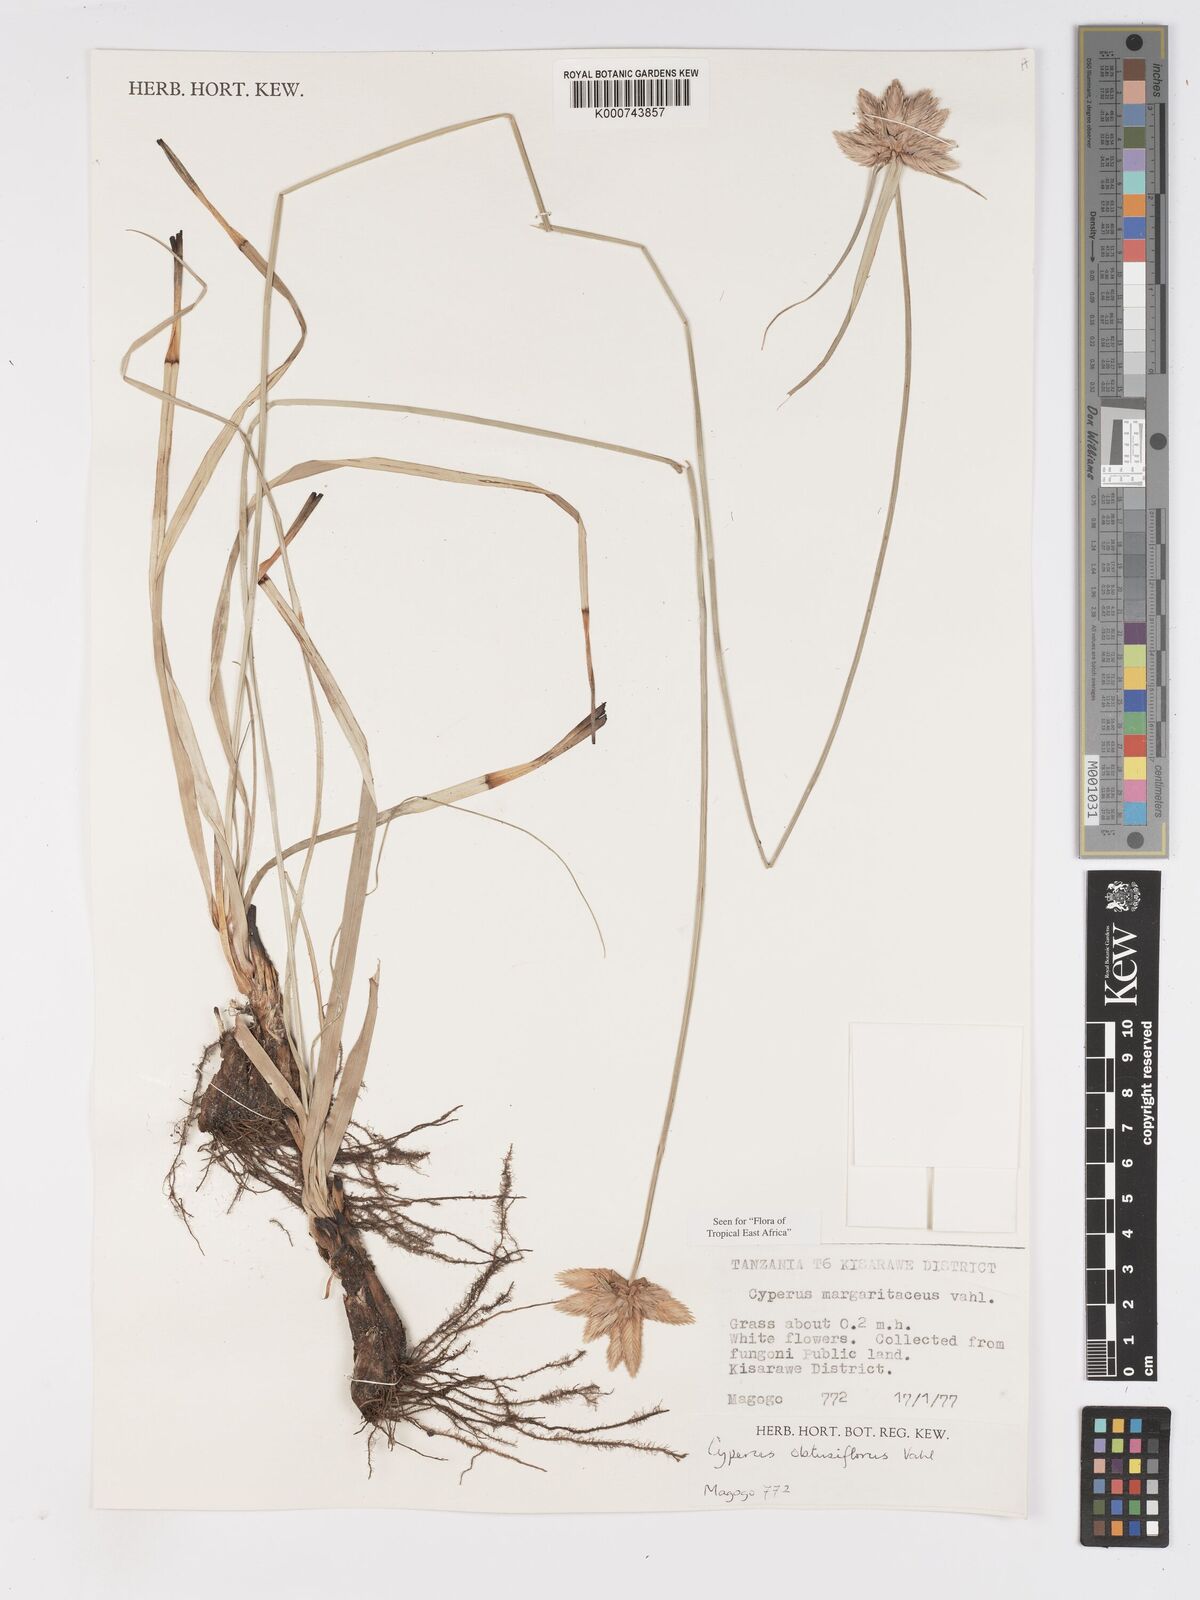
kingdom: Plantae
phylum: Tracheophyta
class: Liliopsida
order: Poales
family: Cyperaceae
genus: Cyperus
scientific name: Cyperus margaritaceus
